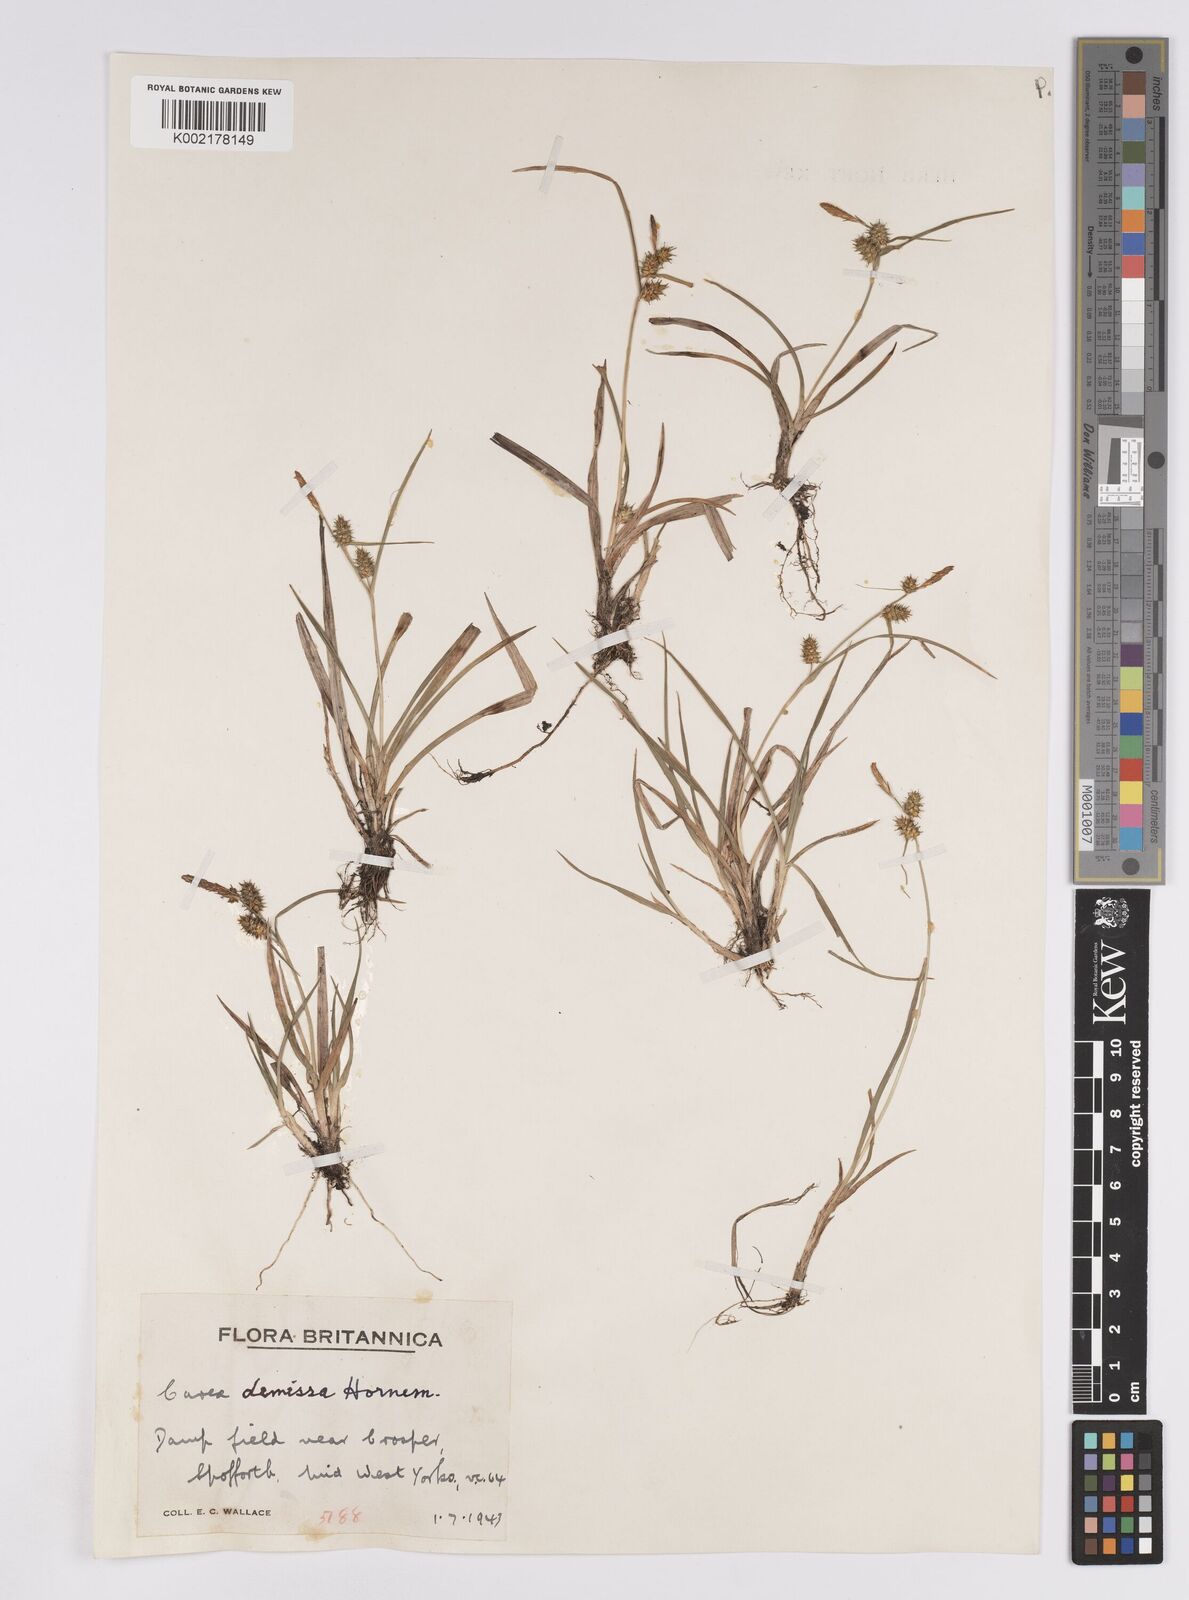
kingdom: Plantae
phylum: Tracheophyta
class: Liliopsida
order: Poales
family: Cyperaceae
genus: Carex
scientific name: Carex demissa
